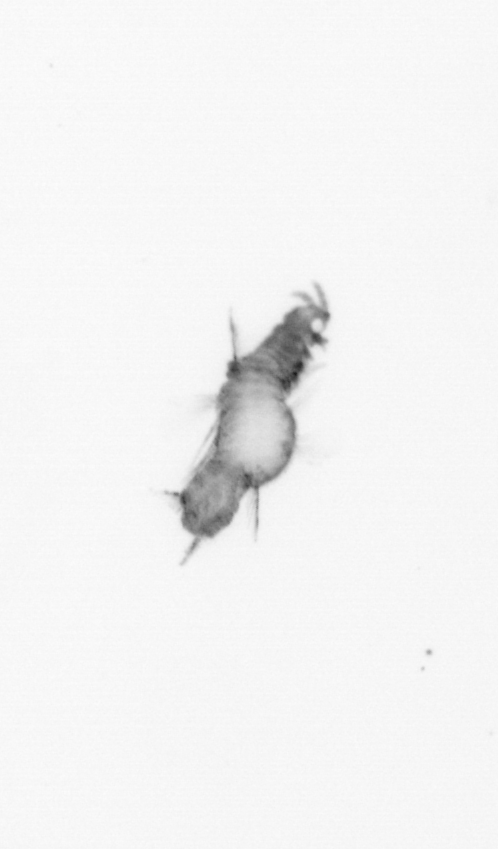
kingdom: Animalia
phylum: Annelida
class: Polychaeta
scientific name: Polychaeta
